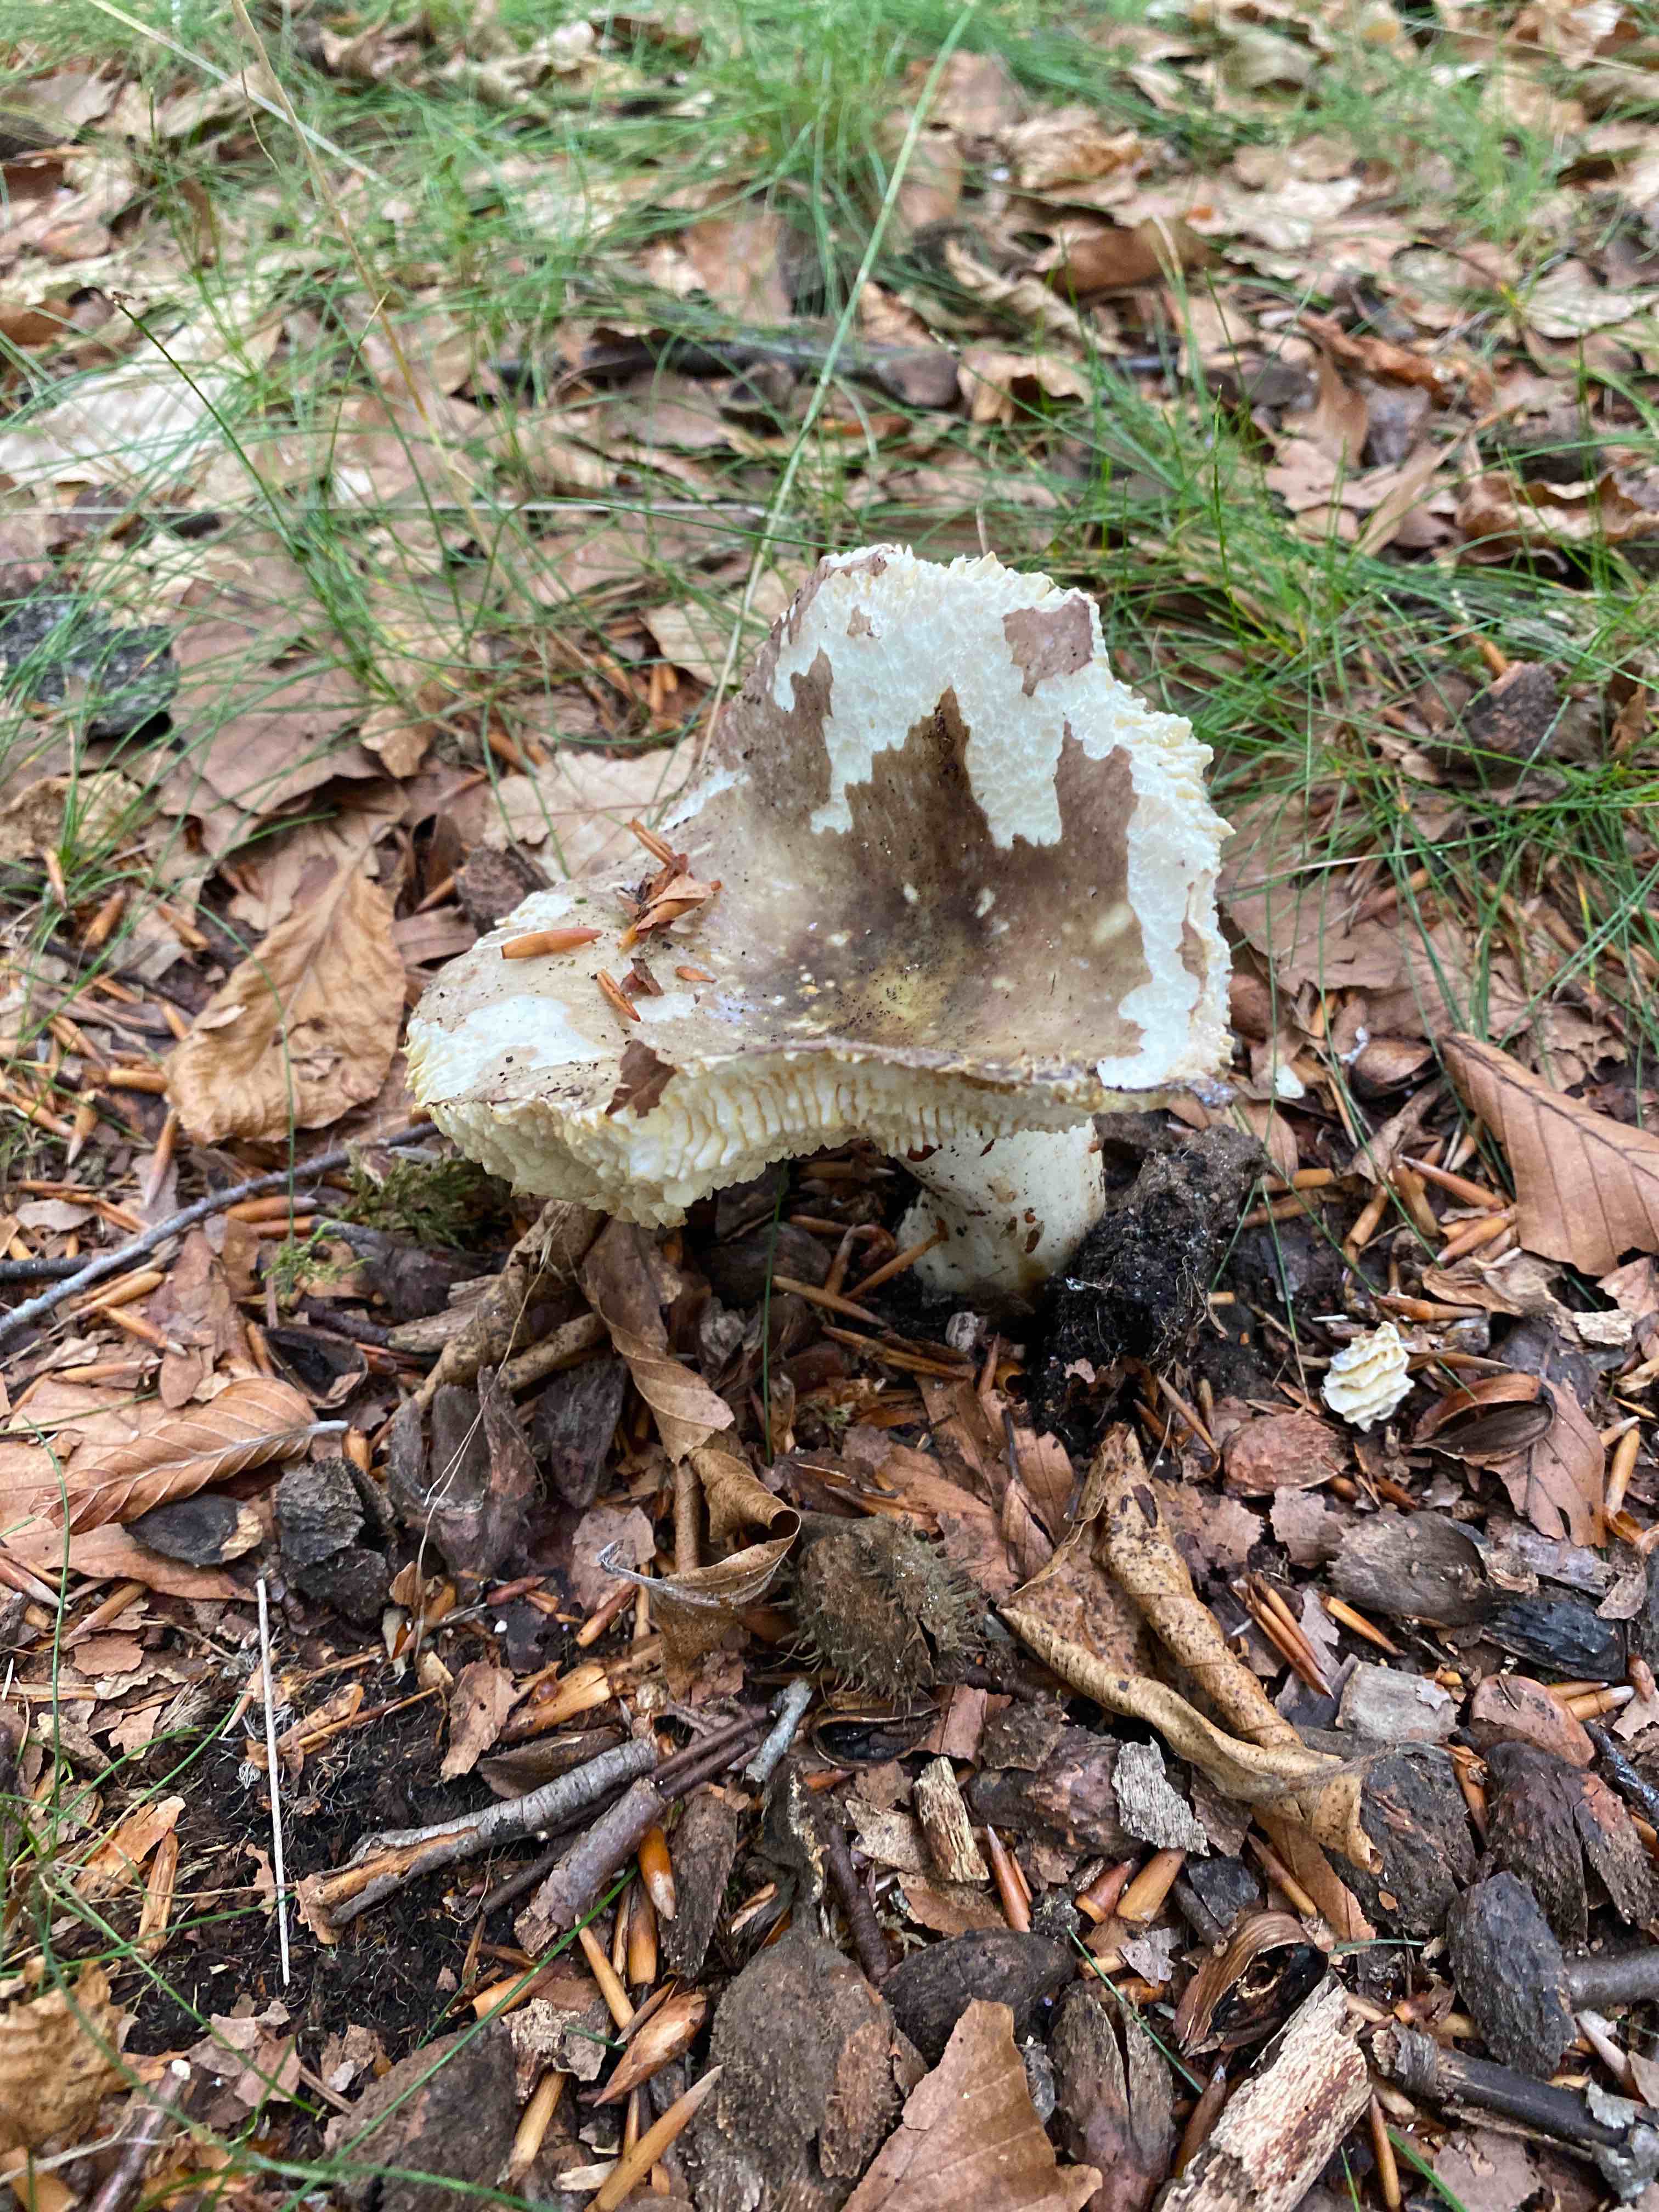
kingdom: Fungi
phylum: Basidiomycota
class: Agaricomycetes
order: Russulales
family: Russulaceae
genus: Russula
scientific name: Russula olivacea
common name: stor skørhat
